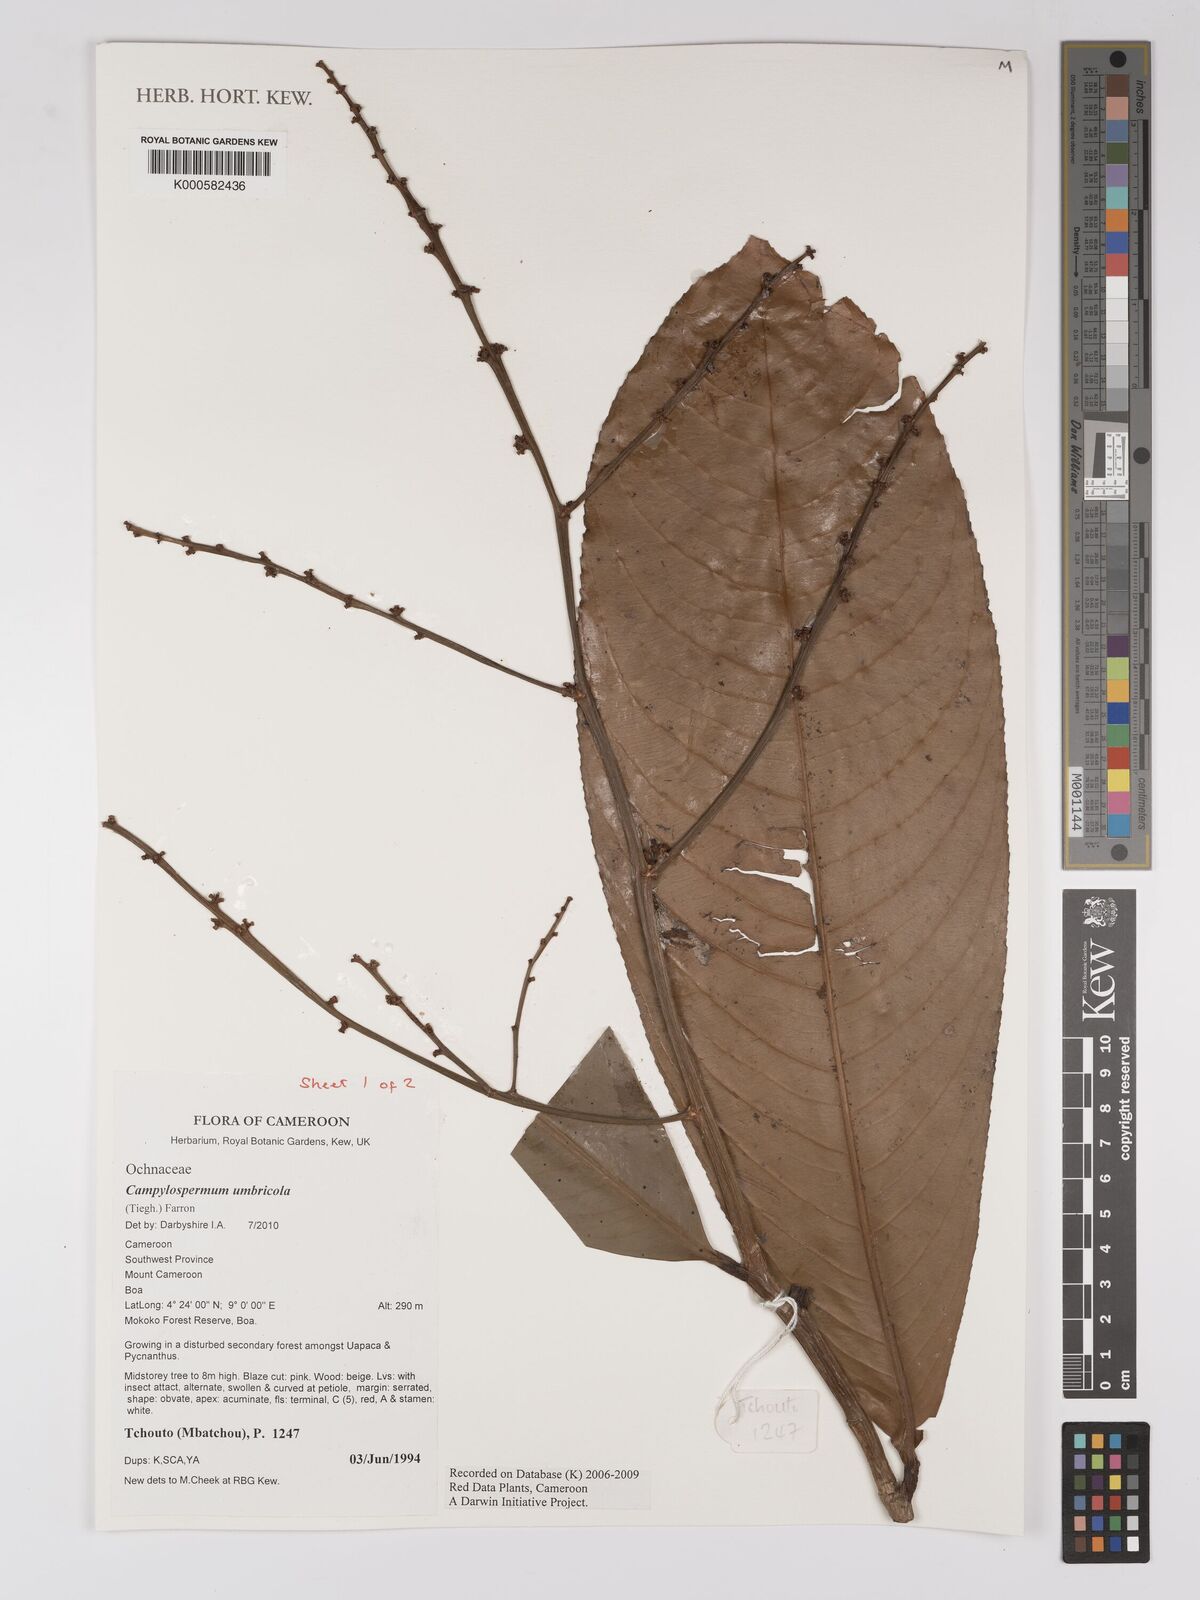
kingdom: Plantae
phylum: Tracheophyta
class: Magnoliopsida
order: Malpighiales
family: Ochnaceae
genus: Campylospermum
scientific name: Campylospermum umbricola
